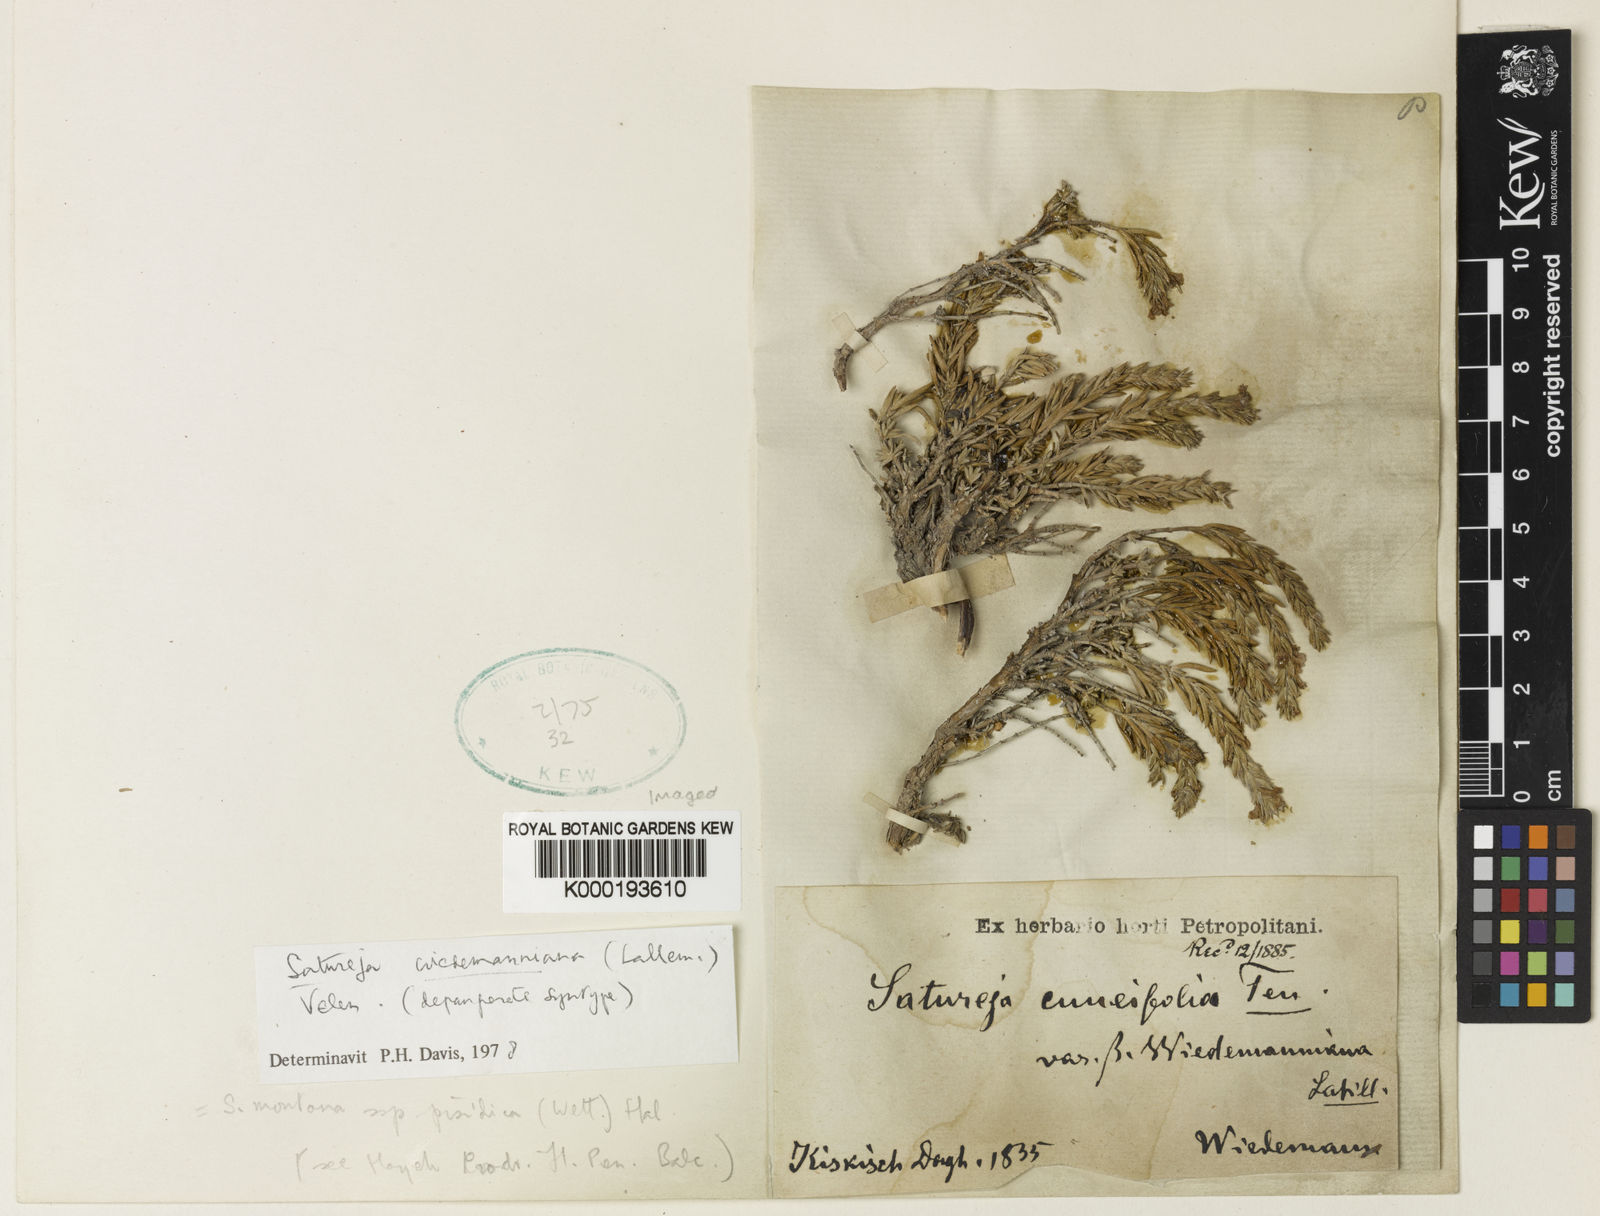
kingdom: Plantae
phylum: Tracheophyta
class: Magnoliopsida
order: Lamiales
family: Lamiaceae
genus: Satureja
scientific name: Satureja montana
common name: Winter savory
